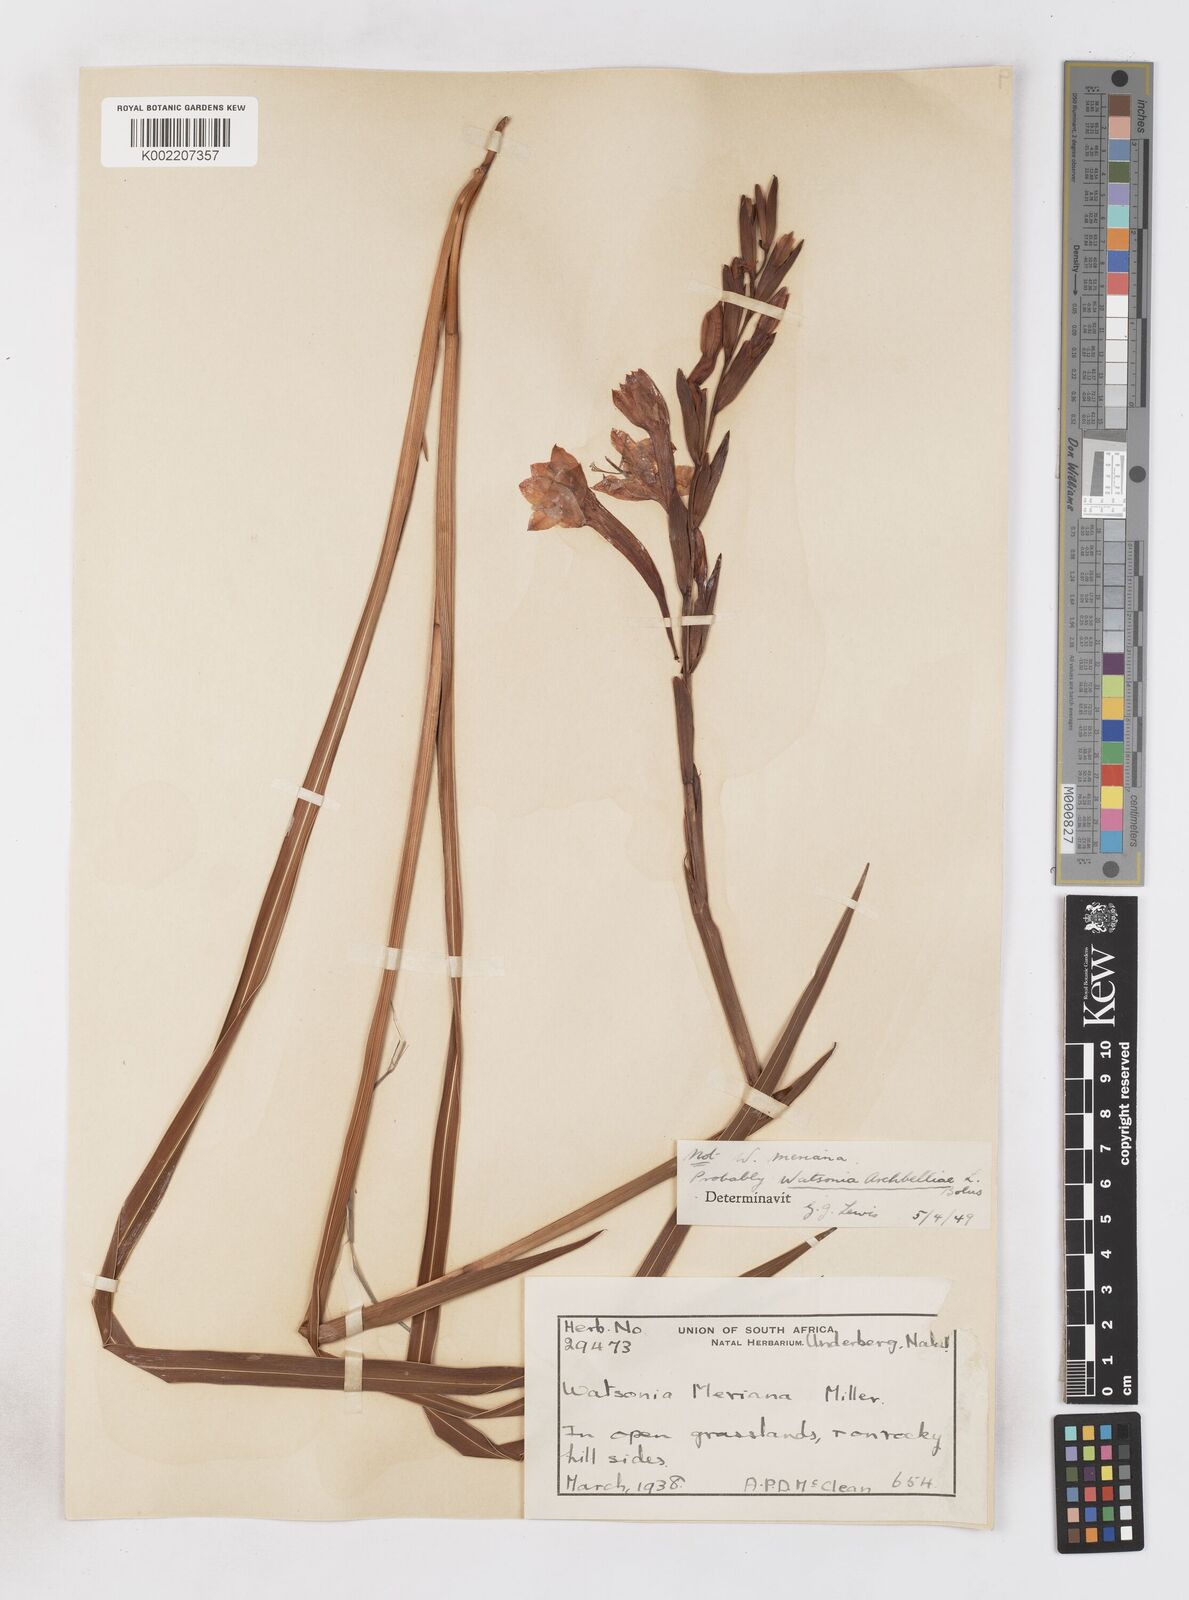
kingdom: Plantae
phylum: Tracheophyta
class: Liliopsida
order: Asparagales
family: Iridaceae
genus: Watsonia
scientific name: Watsonia pillansii
